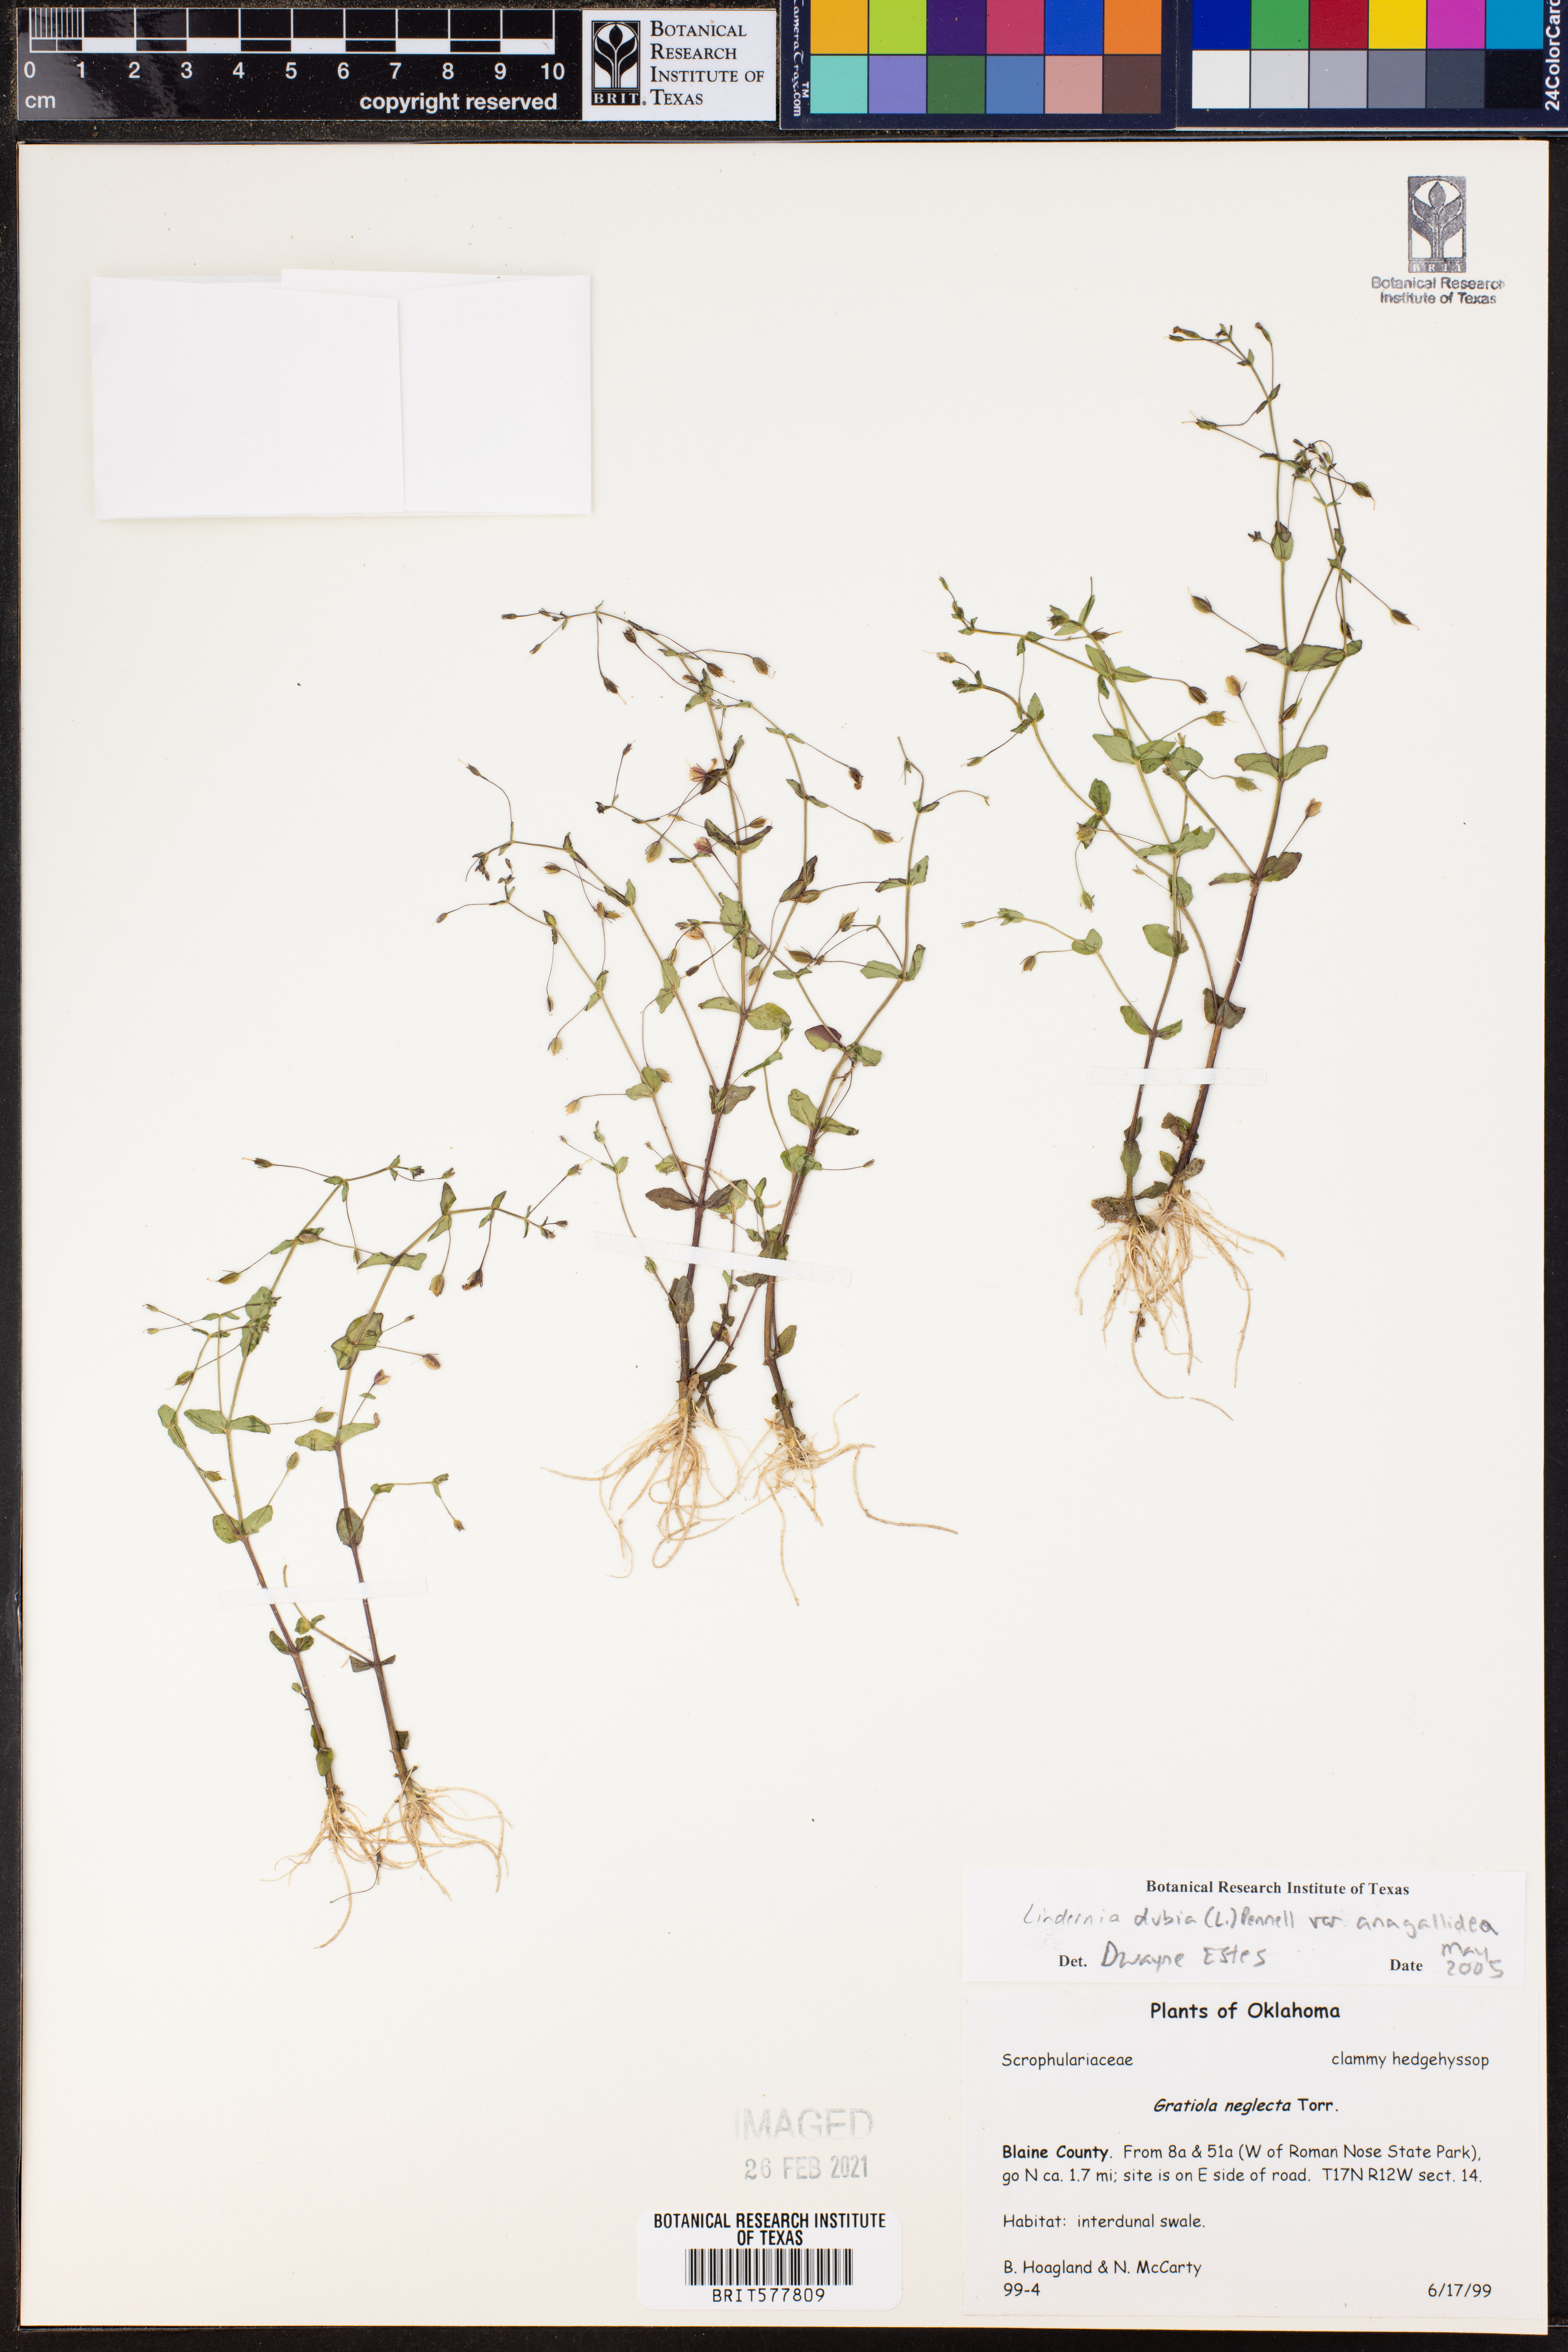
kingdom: Plantae
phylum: Tracheophyta
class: Magnoliopsida
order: Lamiales
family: Linderniaceae
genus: Lindernia
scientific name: Lindernia dubia
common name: Annual false pimpernel
